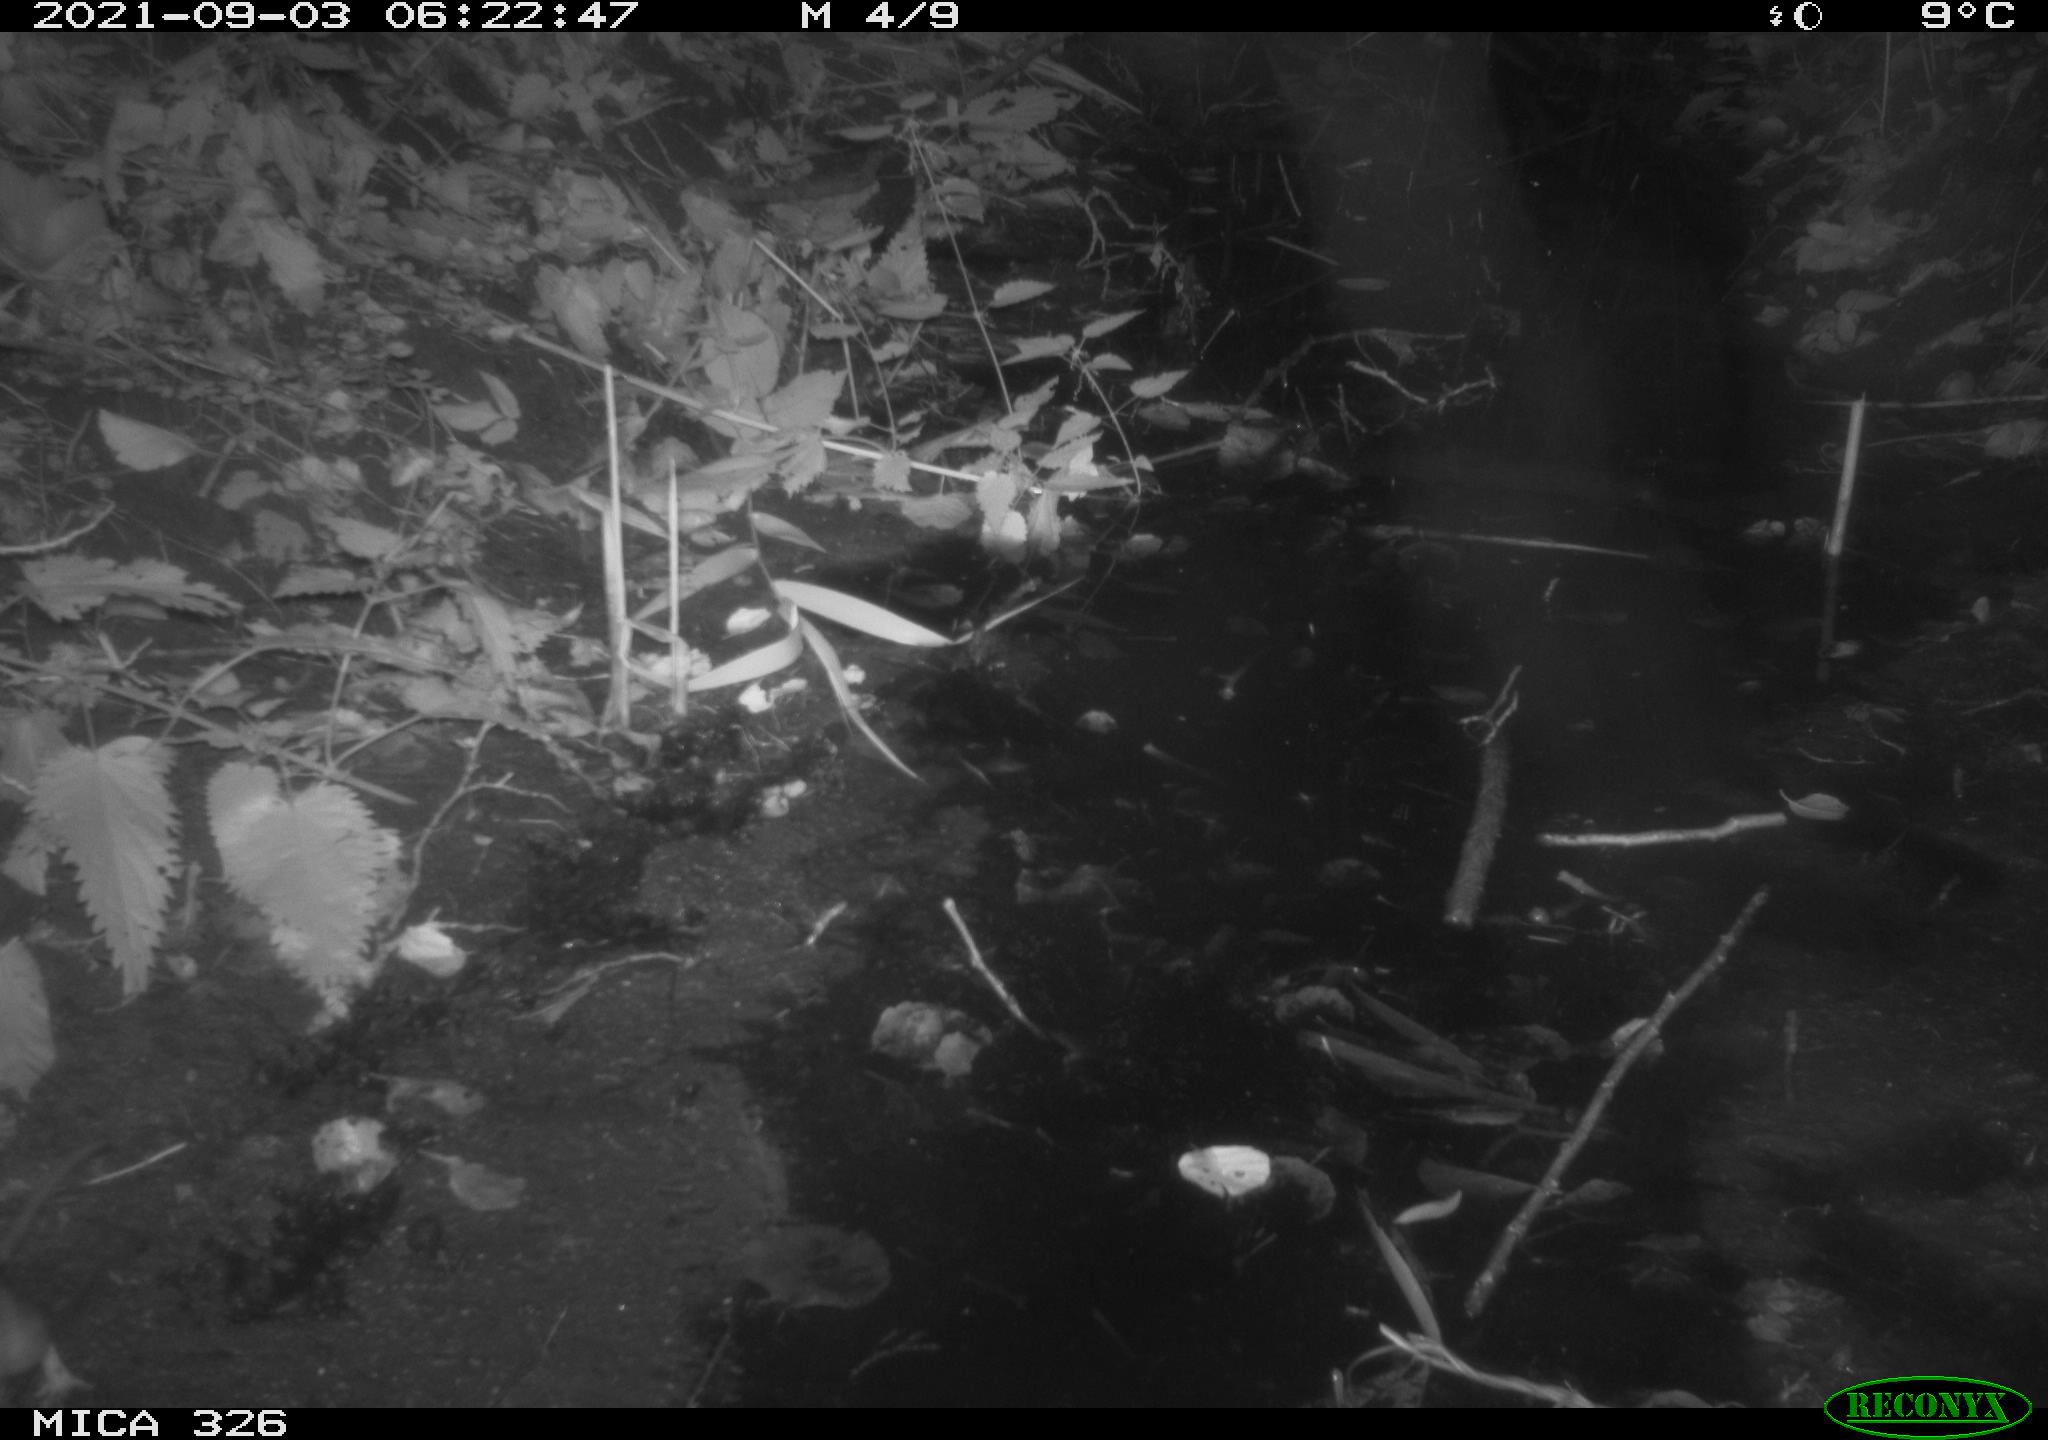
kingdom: Animalia
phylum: Chordata
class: Mammalia
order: Rodentia
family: Muridae
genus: Rattus
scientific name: Rattus norvegicus
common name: Brown rat
